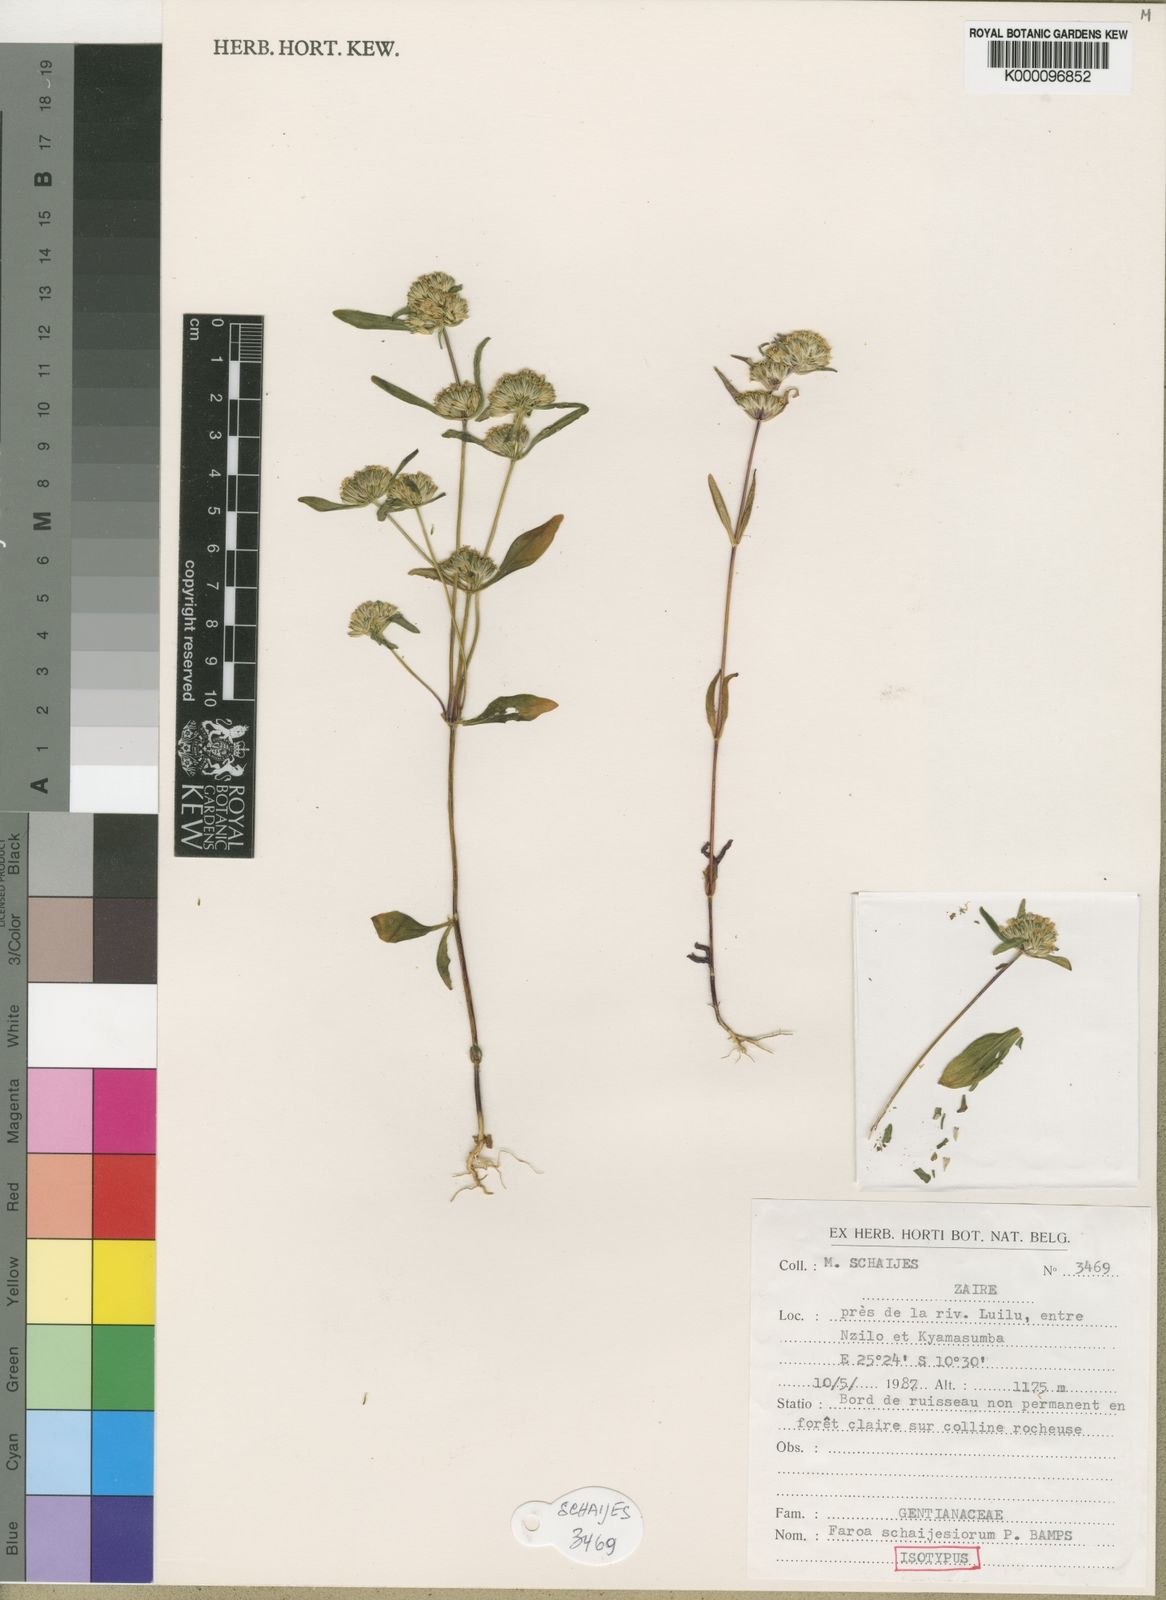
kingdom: Plantae
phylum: Tracheophyta
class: Magnoliopsida
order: Gentianales
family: Gentianaceae
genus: Faroa
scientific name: Faroa schaijesiorum
